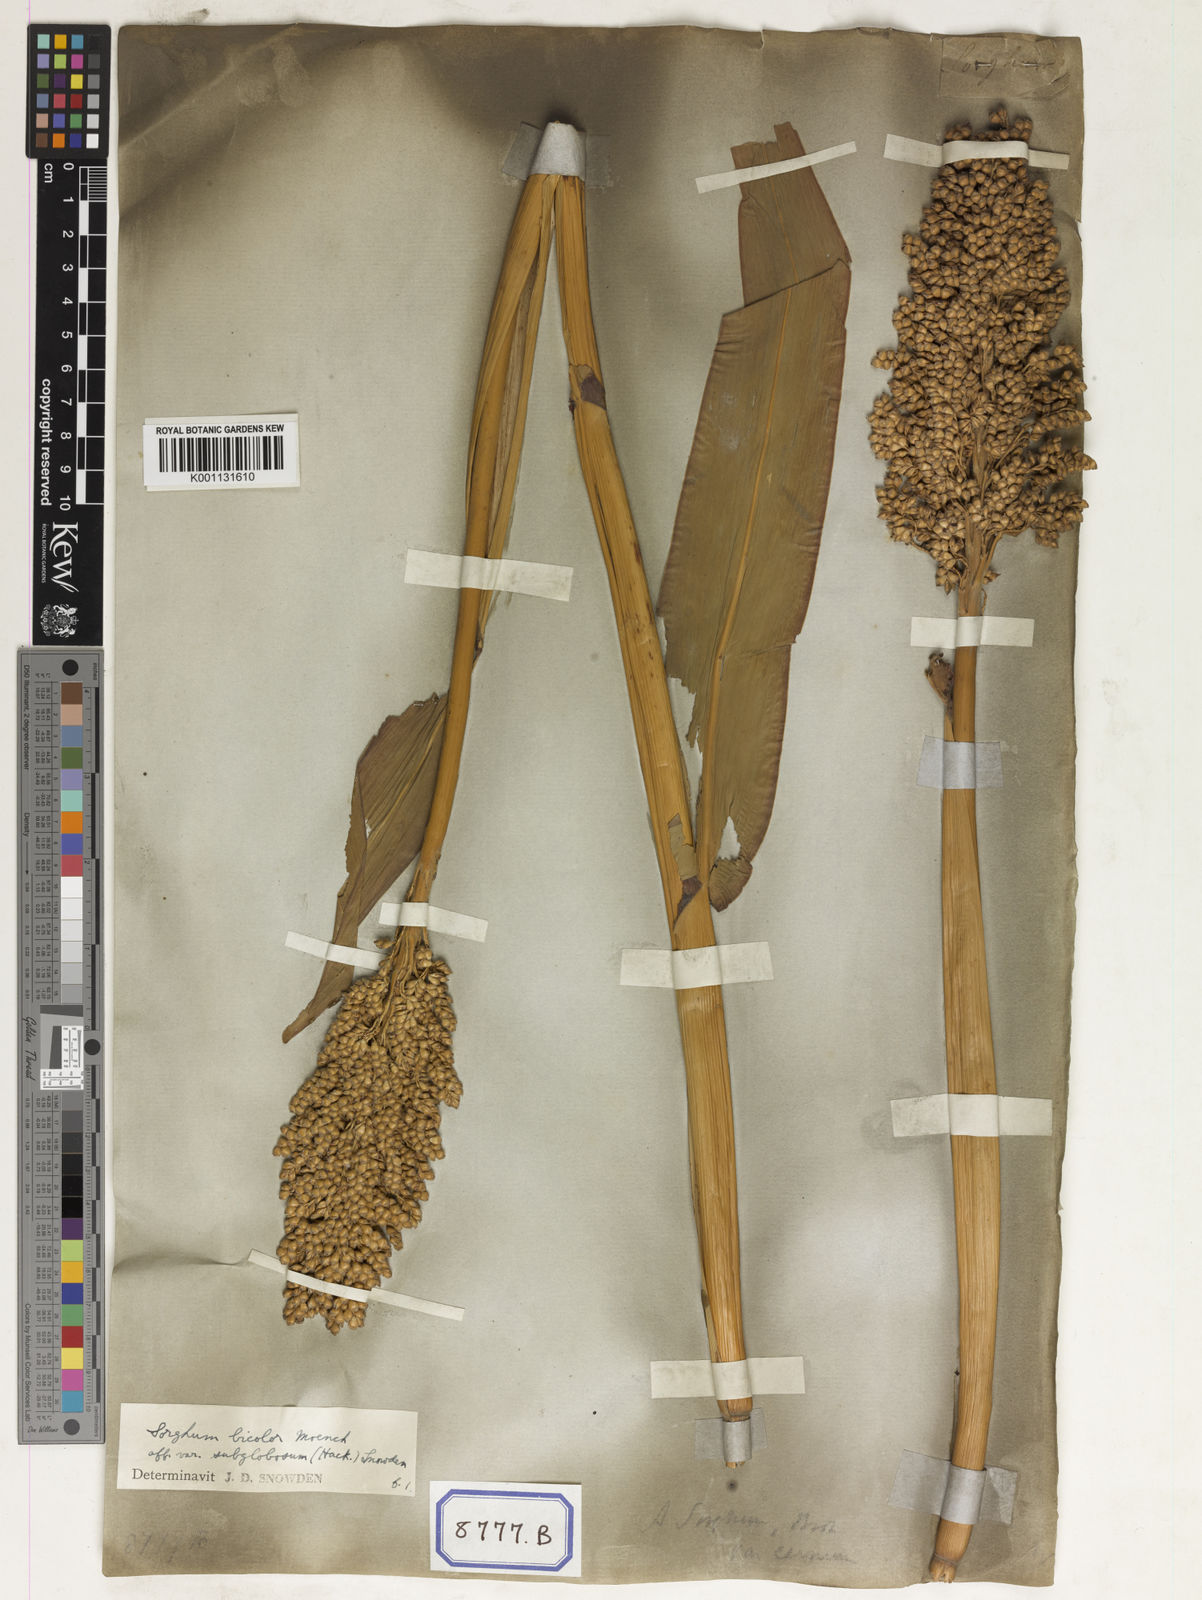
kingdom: Plantae
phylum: Tracheophyta
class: Liliopsida
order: Poales
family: Poaceae
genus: Sorghum
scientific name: Sorghum bicolor
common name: Sorghum
